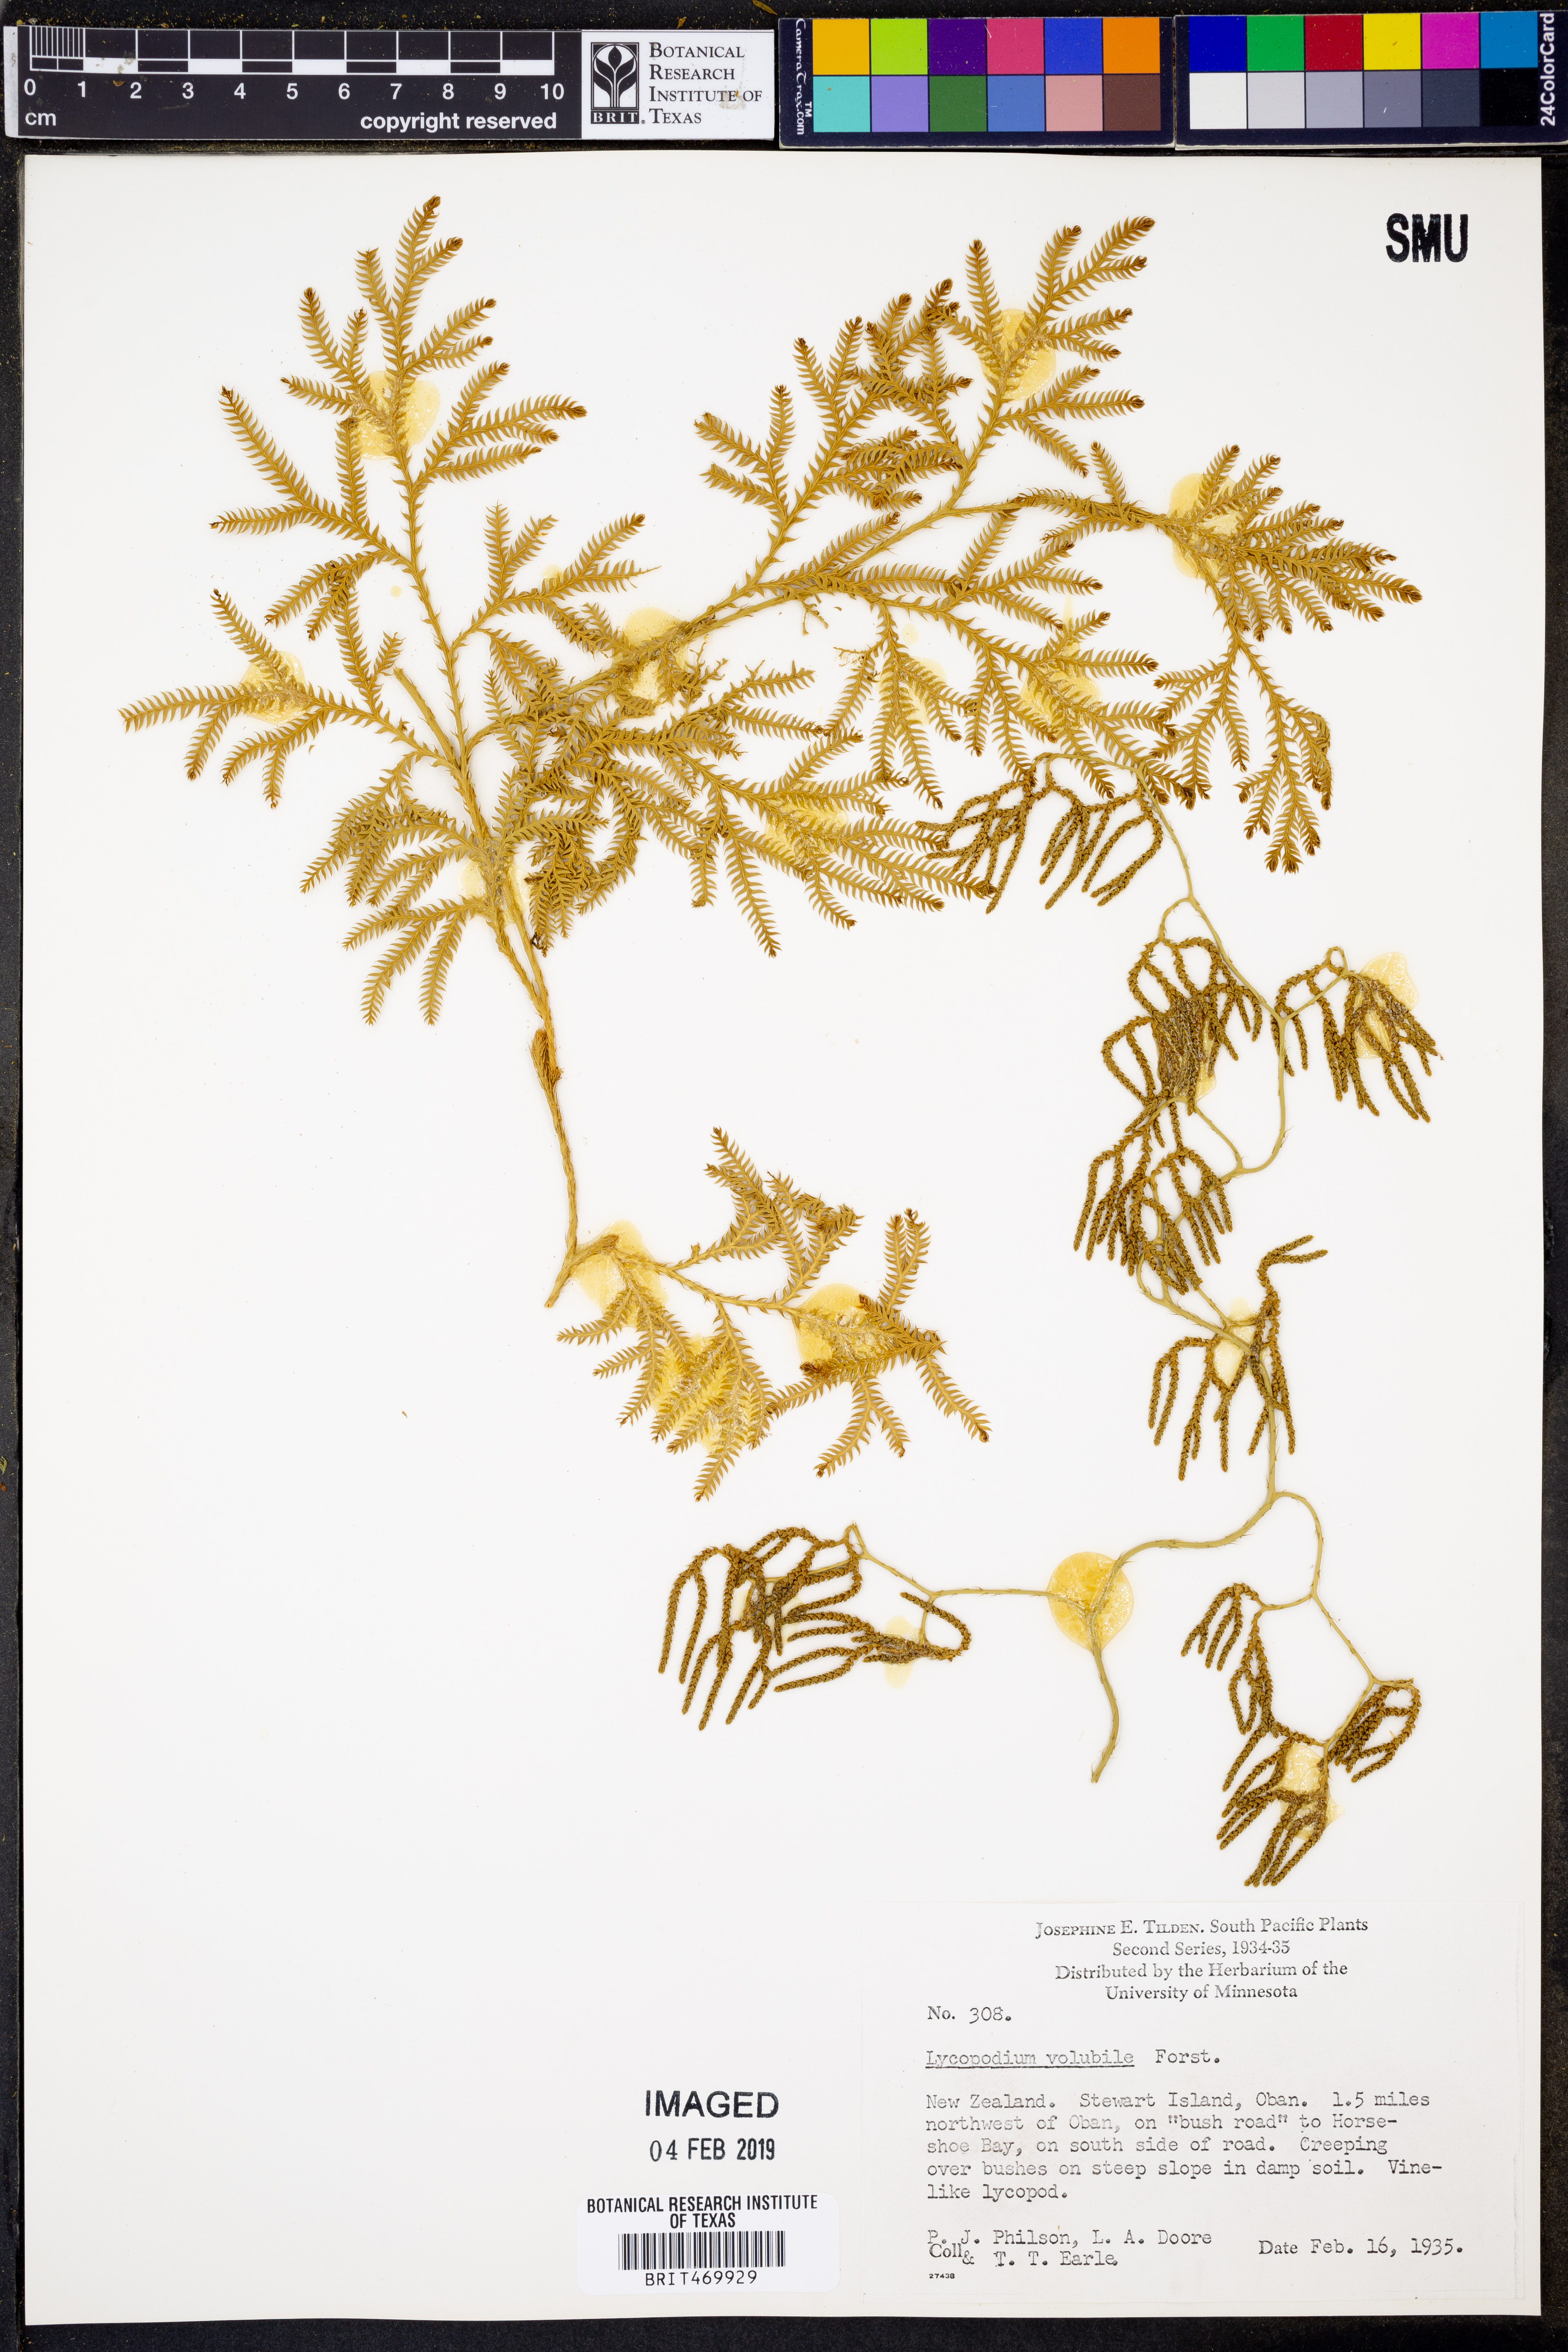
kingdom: Plantae
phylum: Tracheophyta
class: Lycopodiopsida
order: Lycopodiales
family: Lycopodiaceae
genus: Pseudodiphasium
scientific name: Pseudodiphasium volubile
